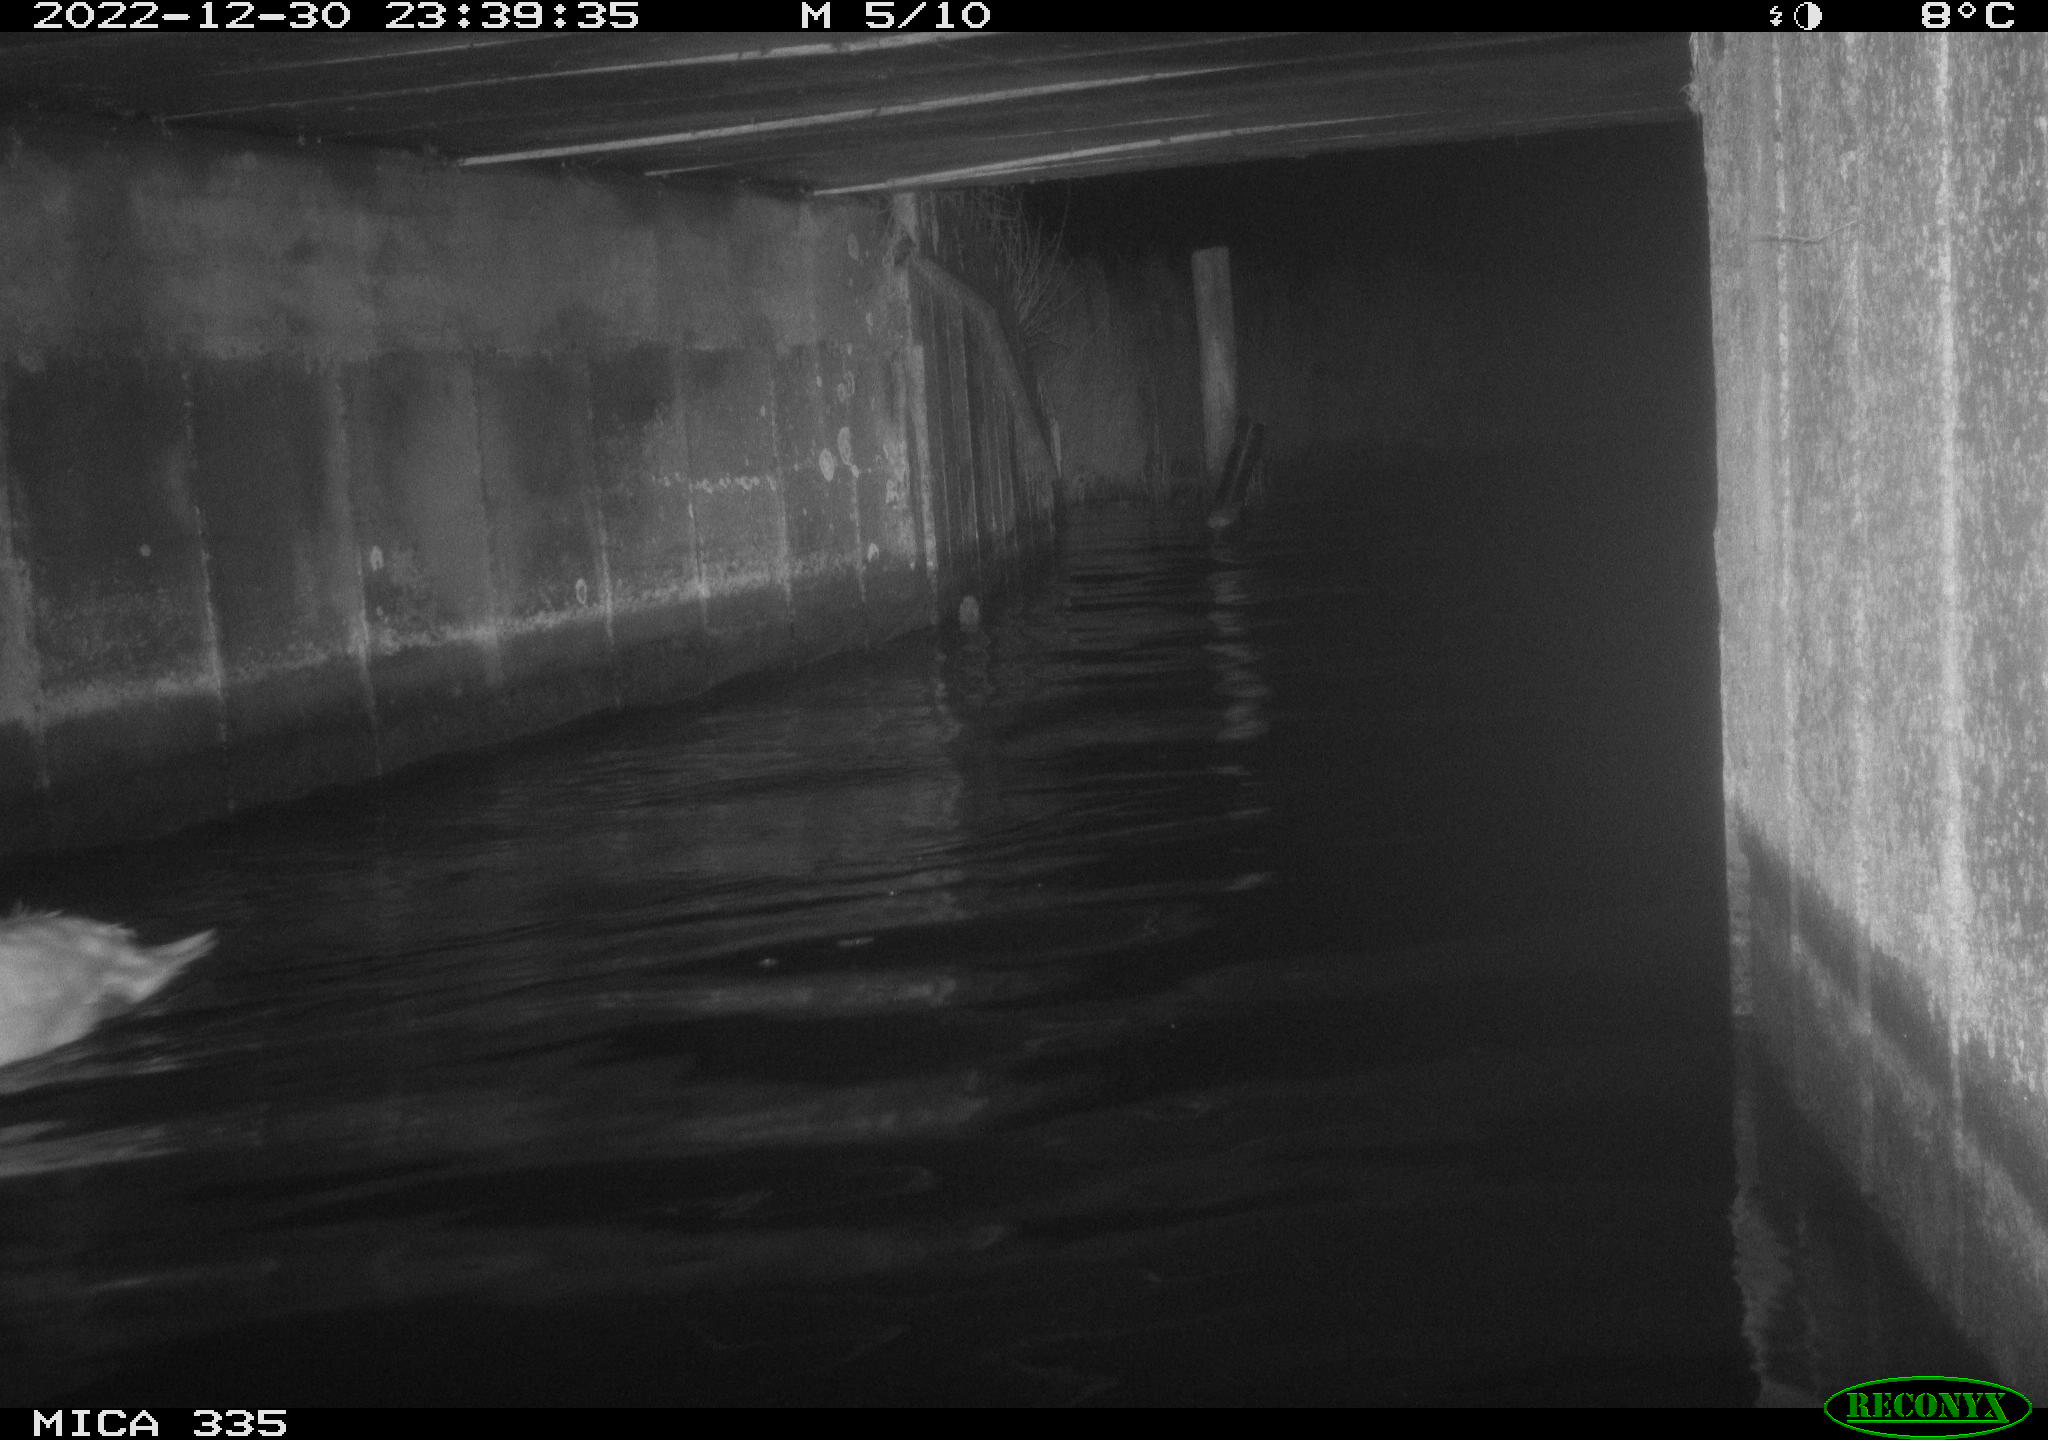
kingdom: Animalia
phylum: Chordata
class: Aves
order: Anseriformes
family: Anatidae
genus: Cygnus
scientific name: Cygnus olor
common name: Mute swan
